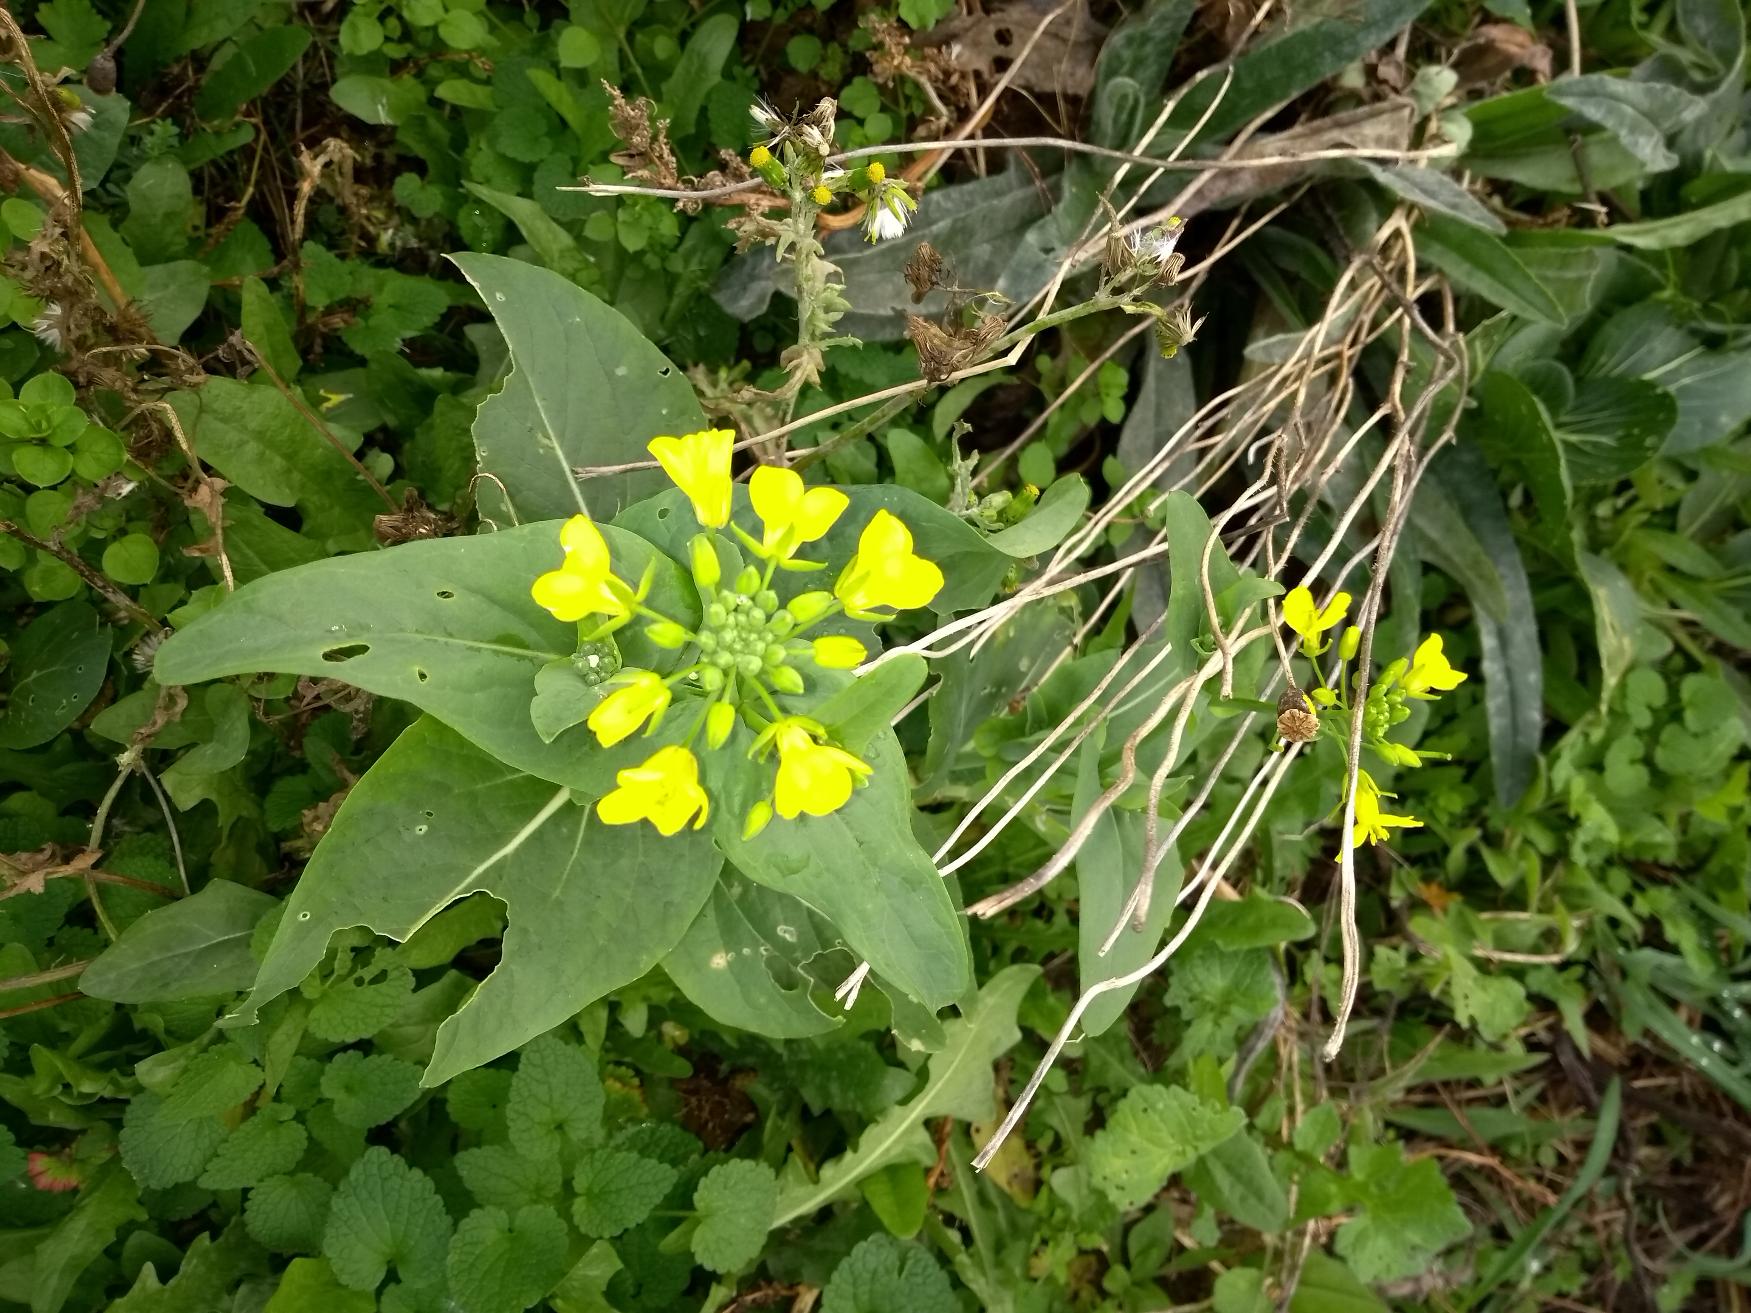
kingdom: Plantae
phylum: Tracheophyta
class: Magnoliopsida
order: Brassicales
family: Brassicaceae
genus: Brassica
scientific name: Brassica napus
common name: Raps
